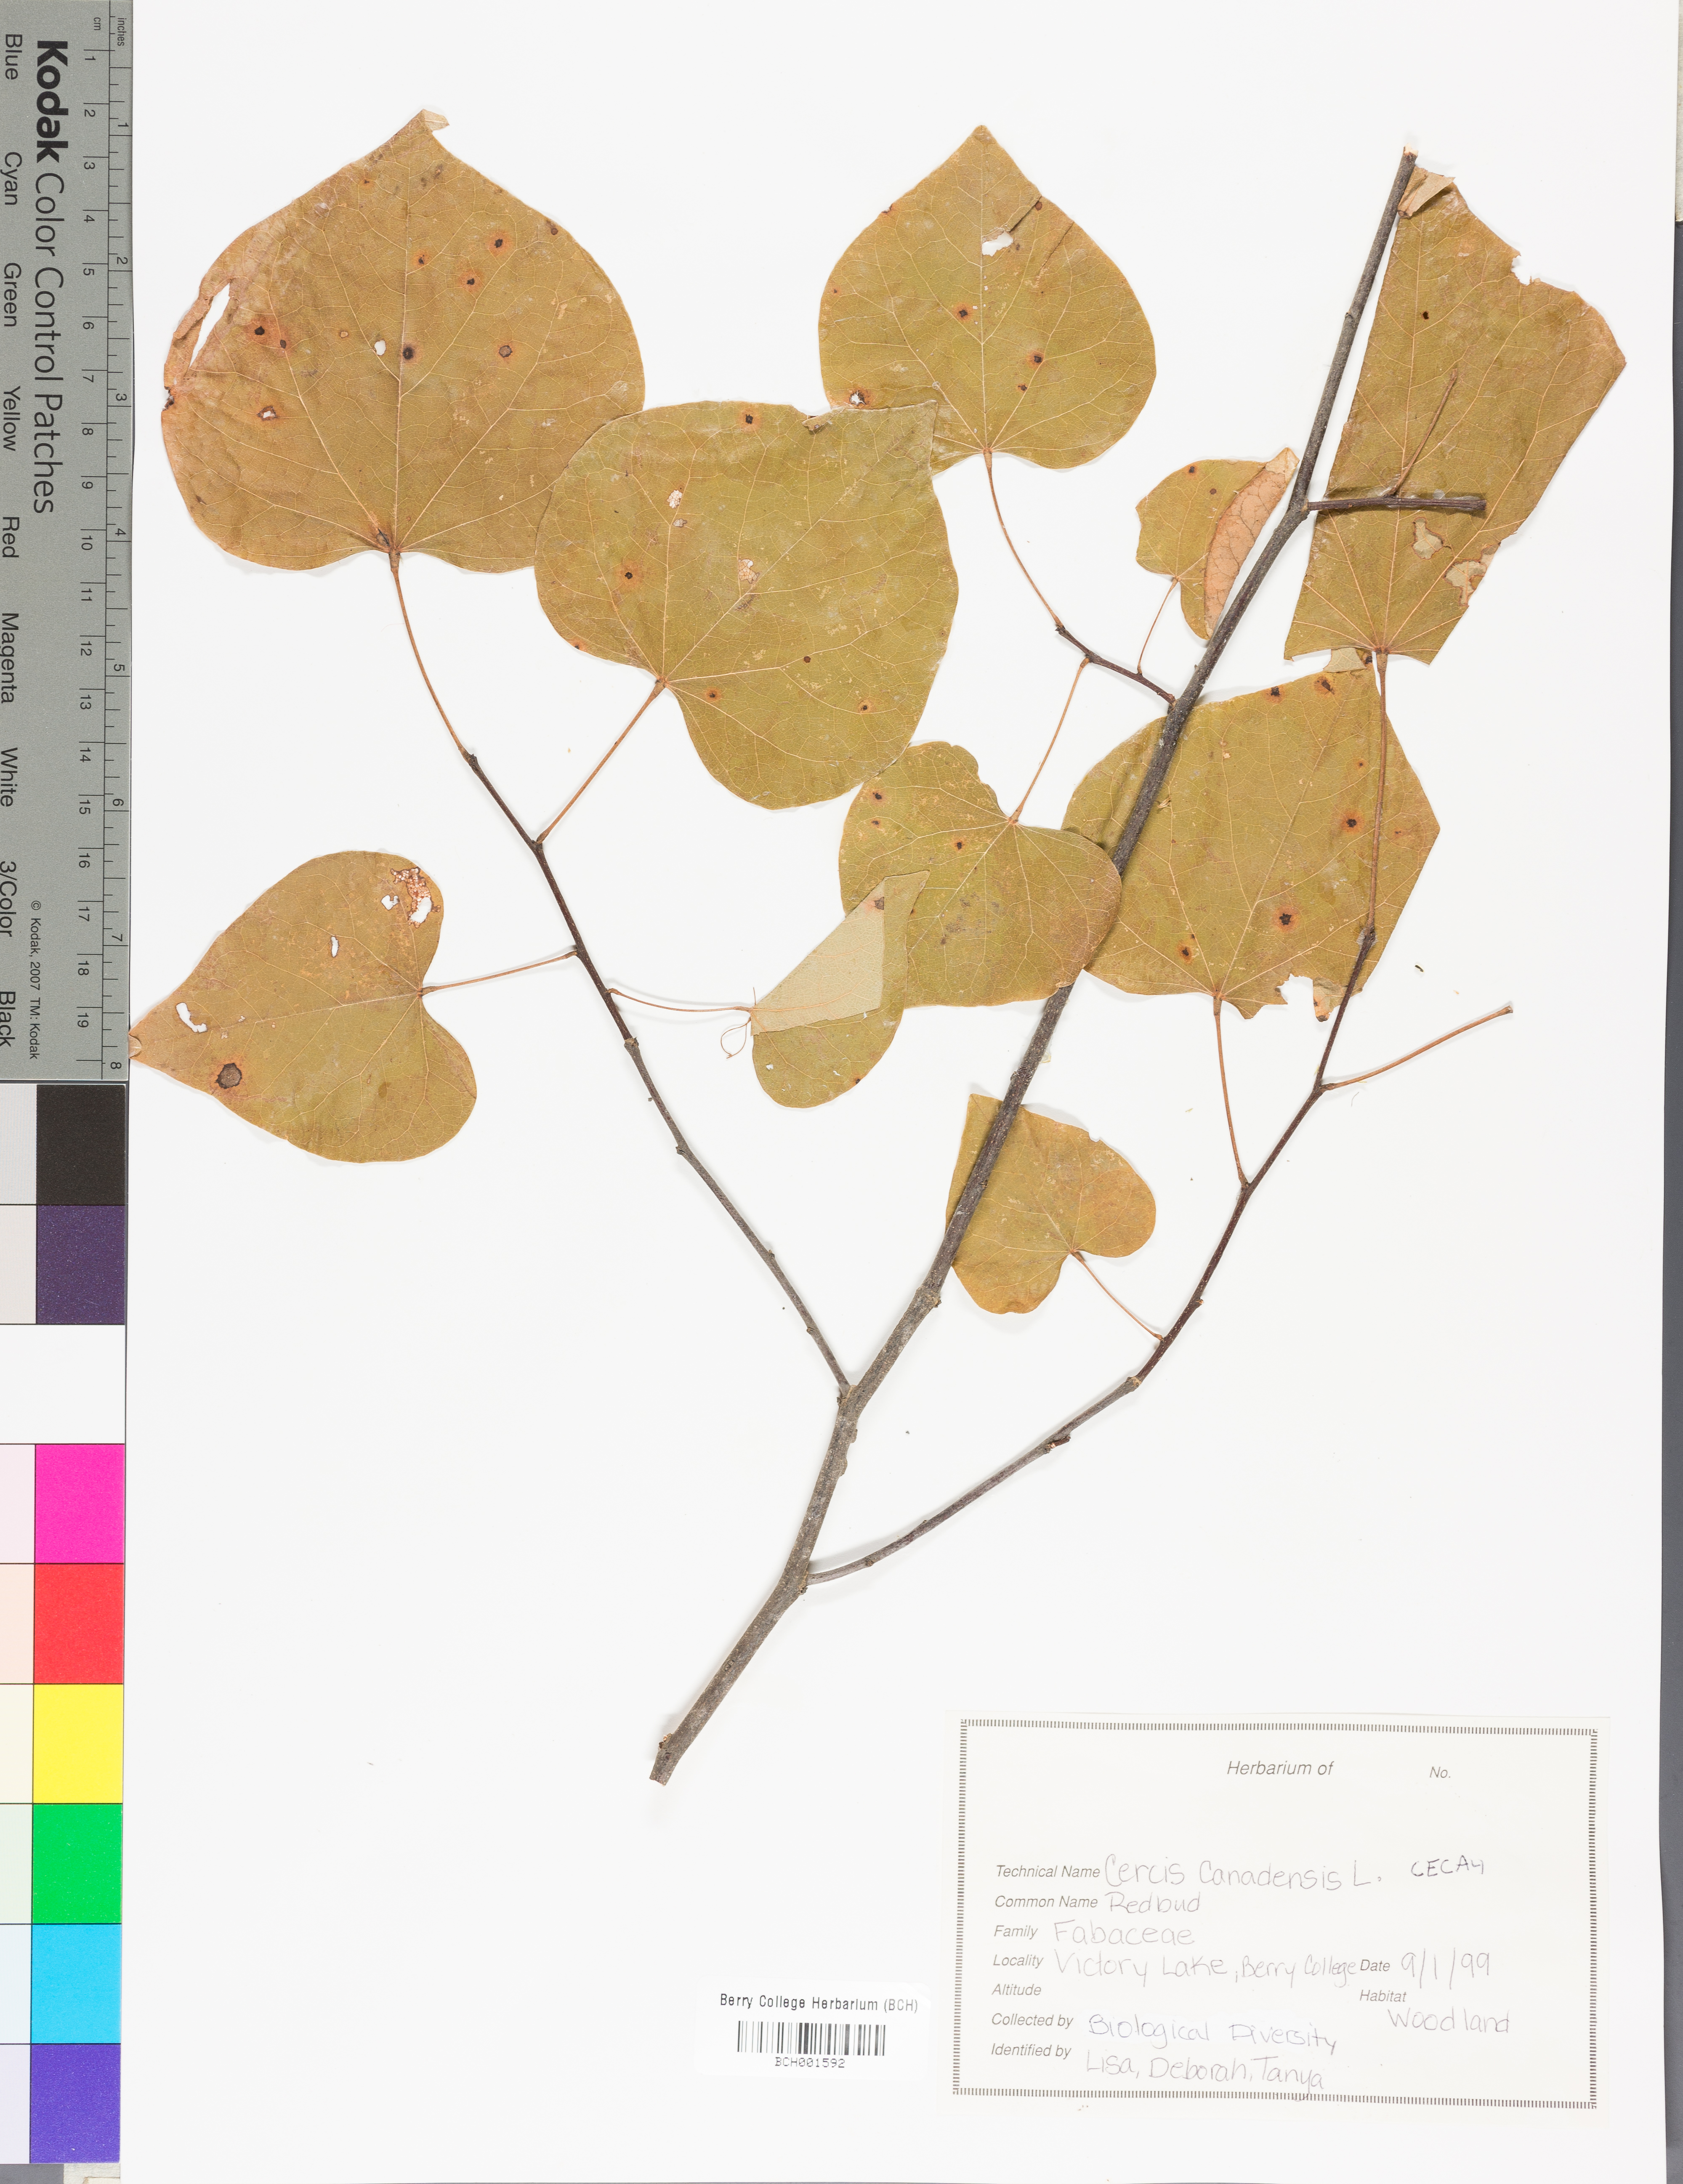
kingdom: Plantae
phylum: Tracheophyta
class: Magnoliopsida
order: Fabales
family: Fabaceae
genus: Cercis
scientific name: Cercis canadensis
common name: Eastern redbud
